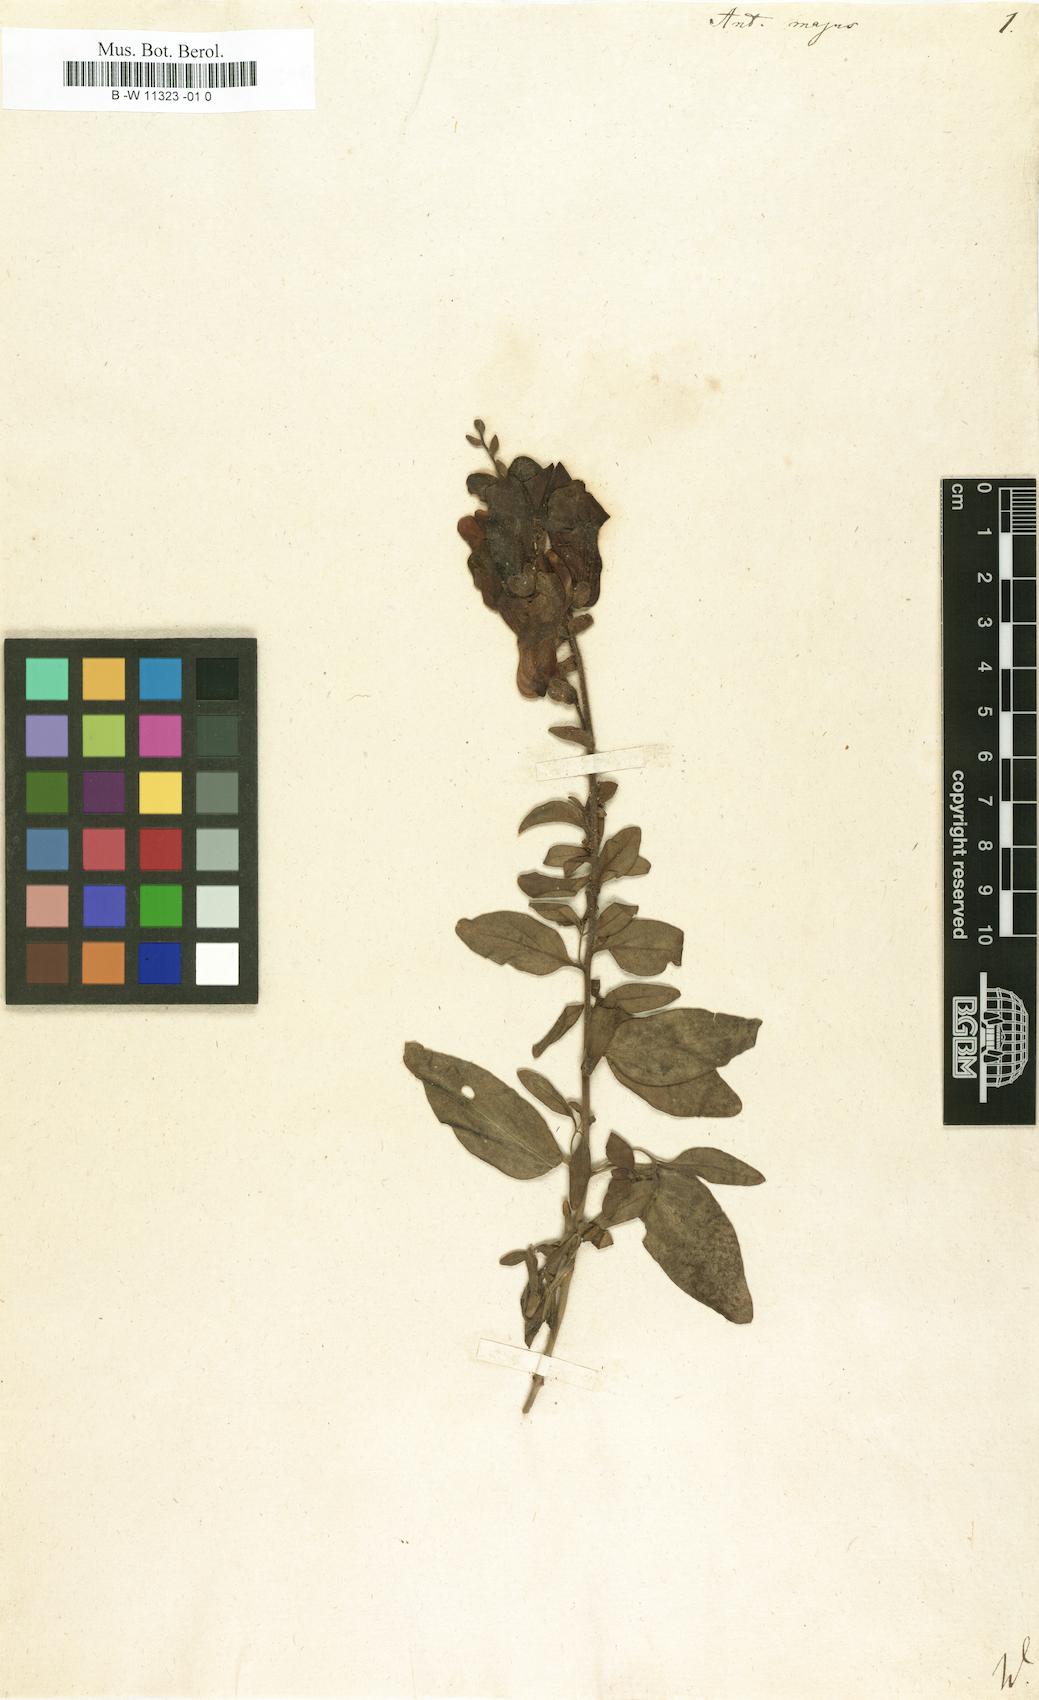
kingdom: Plantae
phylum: Tracheophyta
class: Magnoliopsida
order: Lamiales
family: Plantaginaceae
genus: Antirrhinum
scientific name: Antirrhinum majus
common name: Snapdragon
